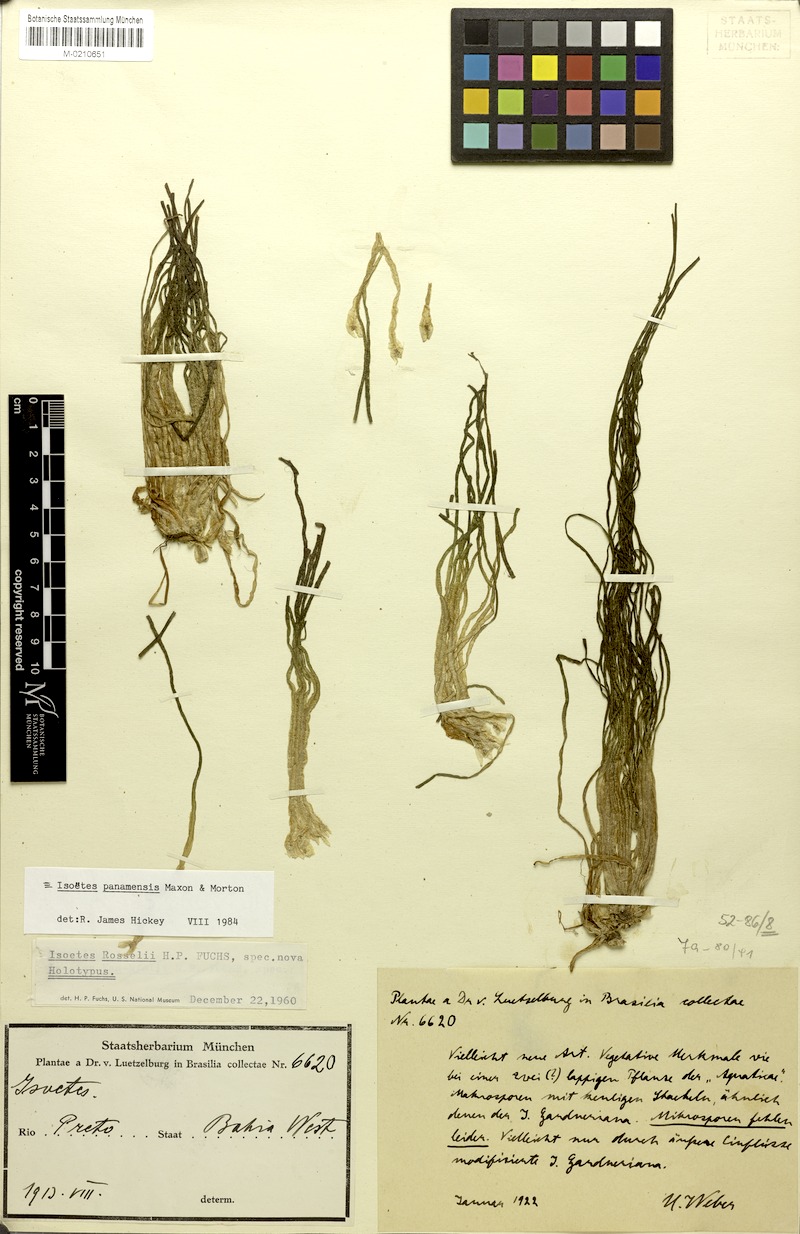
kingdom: Plantae
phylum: Tracheophyta
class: Lycopodiopsida
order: Isoetales
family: Isoetaceae
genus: Isoetes
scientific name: Isoetes longifolia
